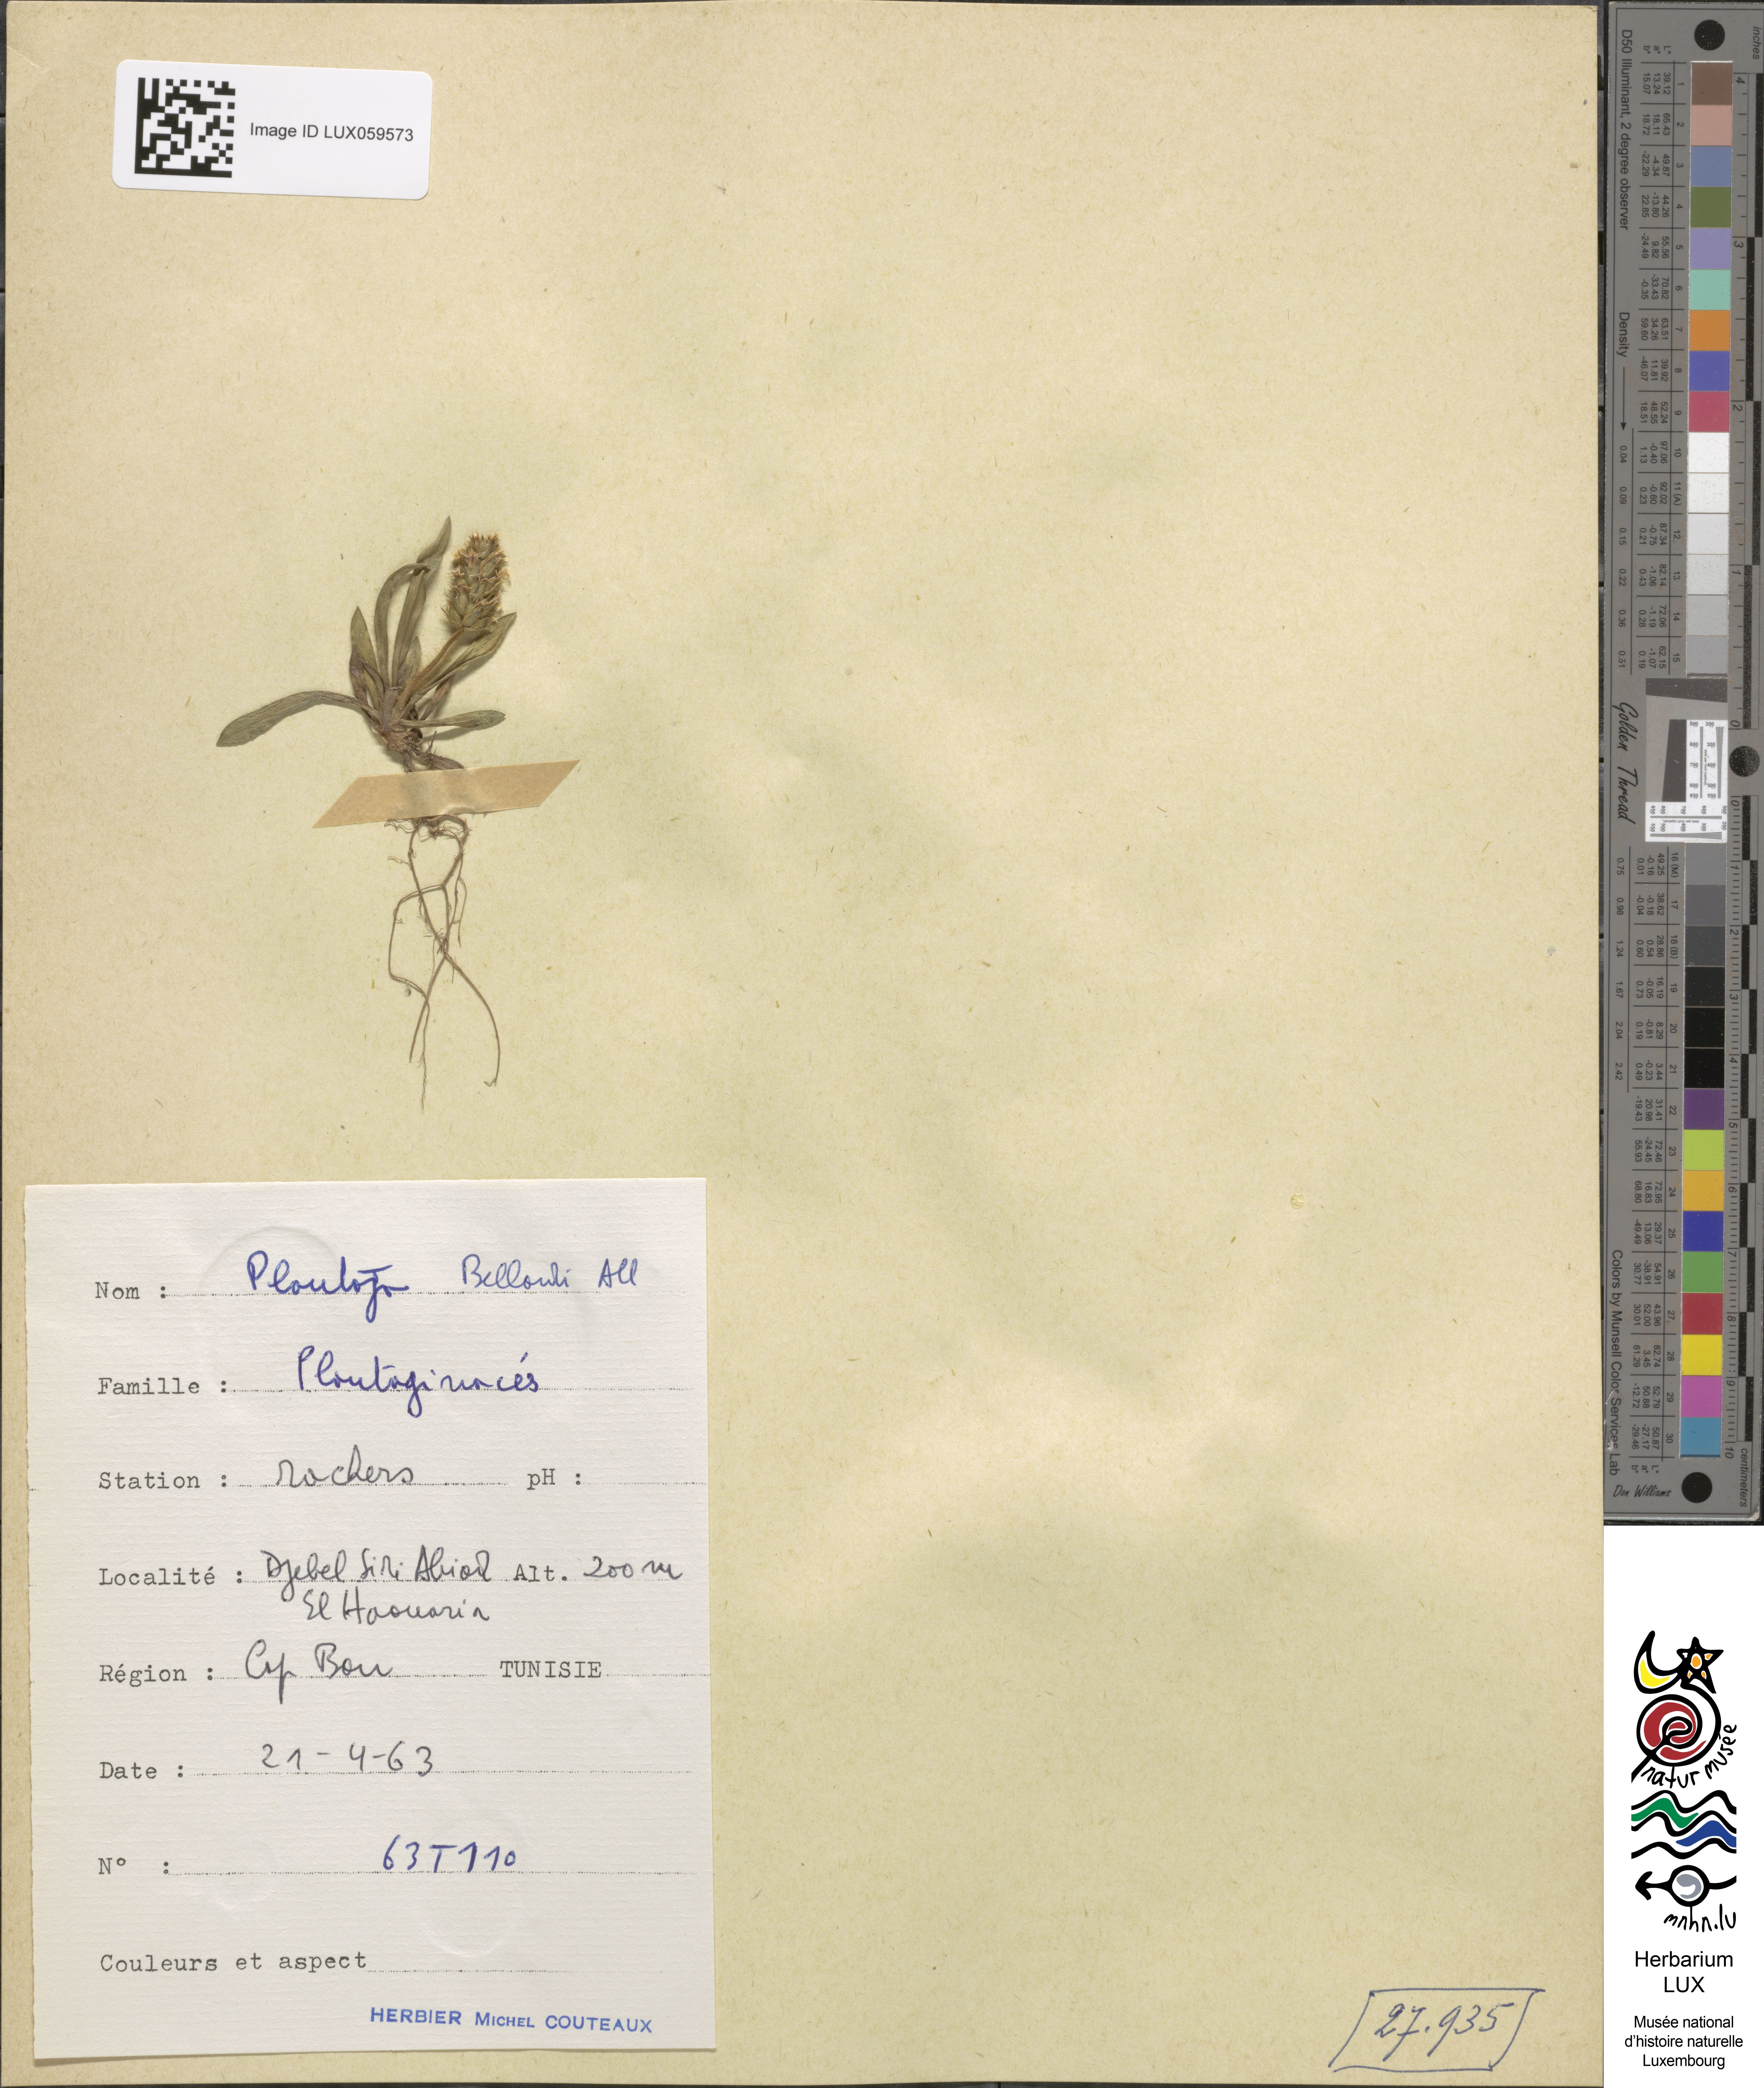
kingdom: Plantae
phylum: Tracheophyta
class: Magnoliopsida
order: Lamiales
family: Plantaginaceae
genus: Plantago
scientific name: Plantago bellardii
